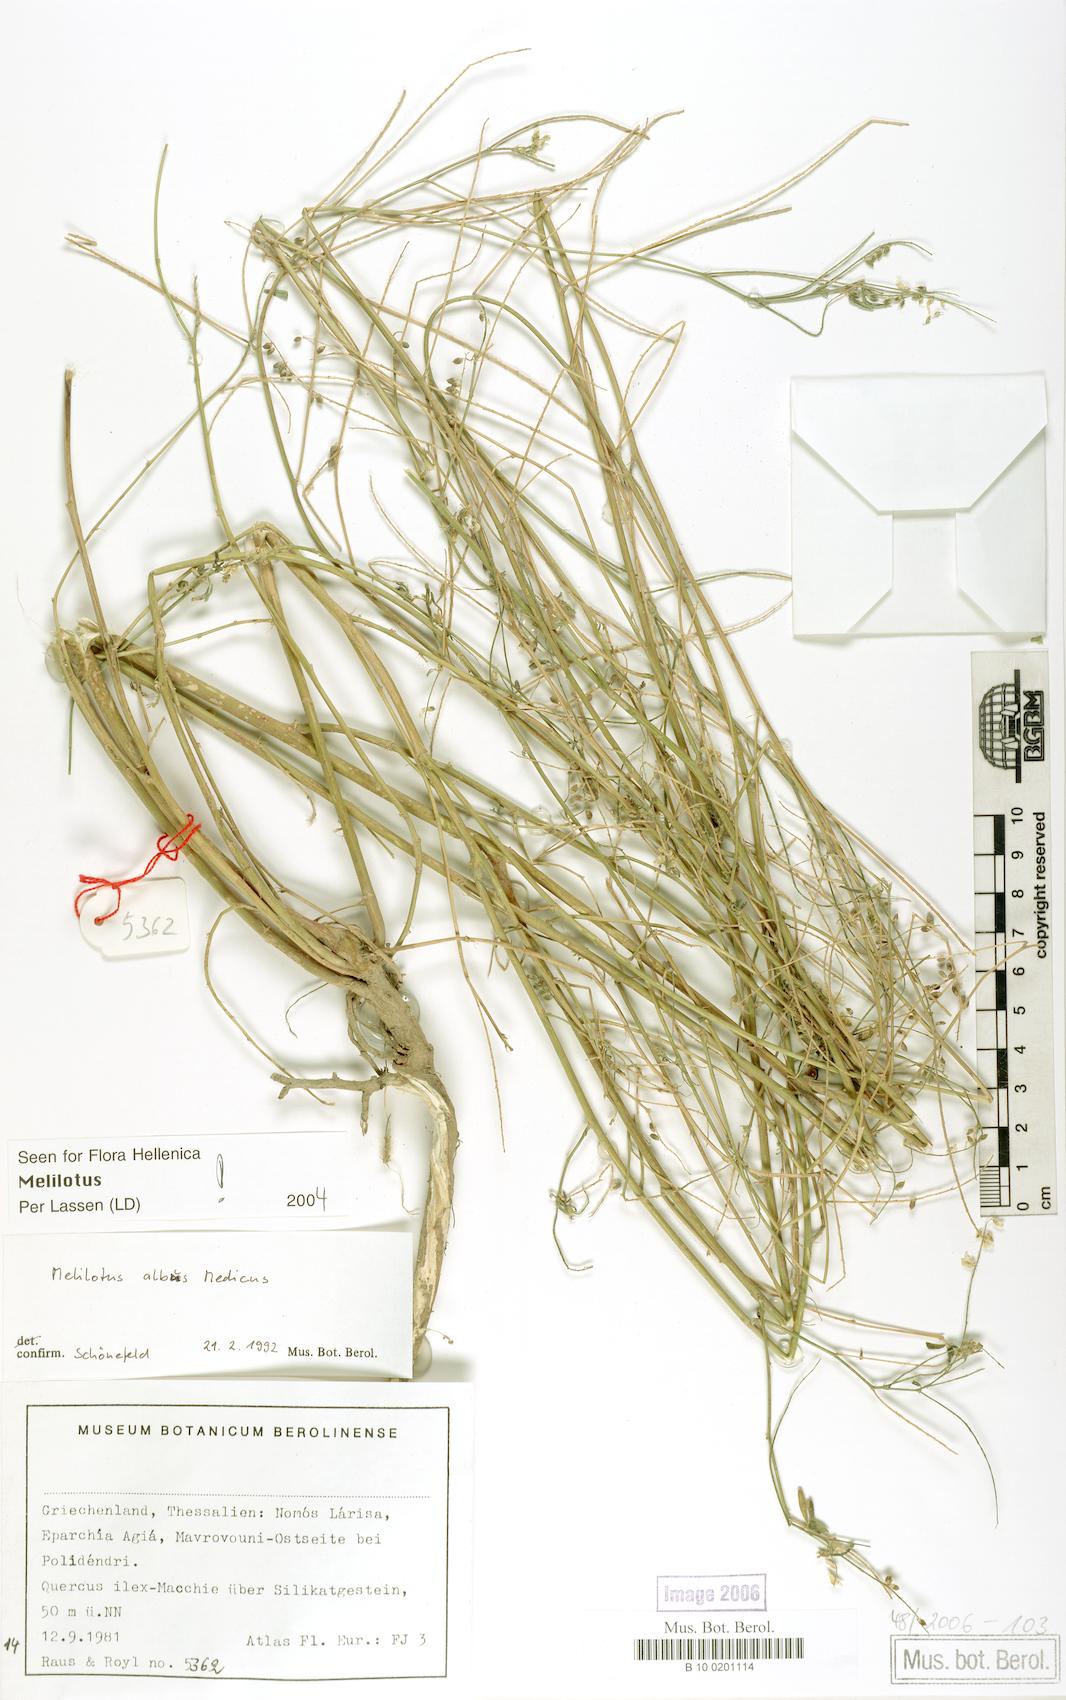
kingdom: Plantae
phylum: Tracheophyta
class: Magnoliopsida
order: Fabales
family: Fabaceae
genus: Melilotus
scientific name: Melilotus albus
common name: White melilot
